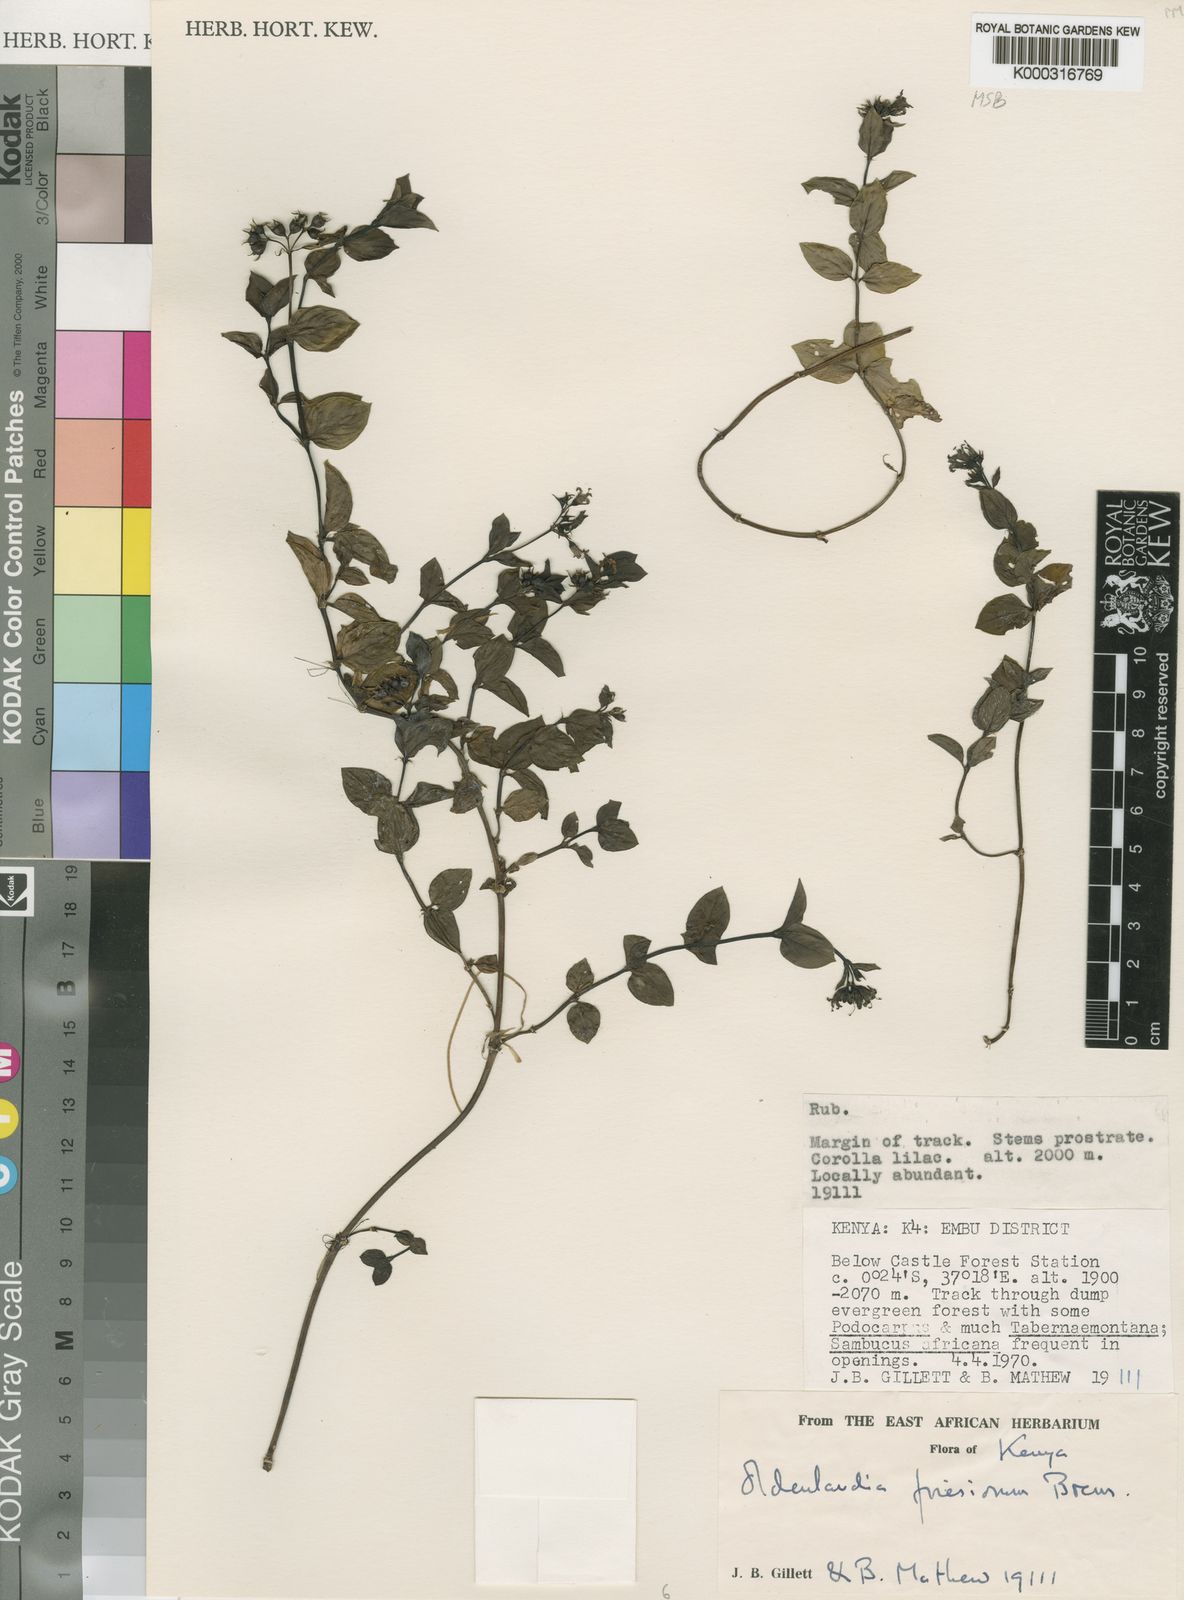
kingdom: Plantae
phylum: Tracheophyta
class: Magnoliopsida
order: Gentianales
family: Rubiaceae
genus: Oldenlandia
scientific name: Oldenlandia friesiorum
